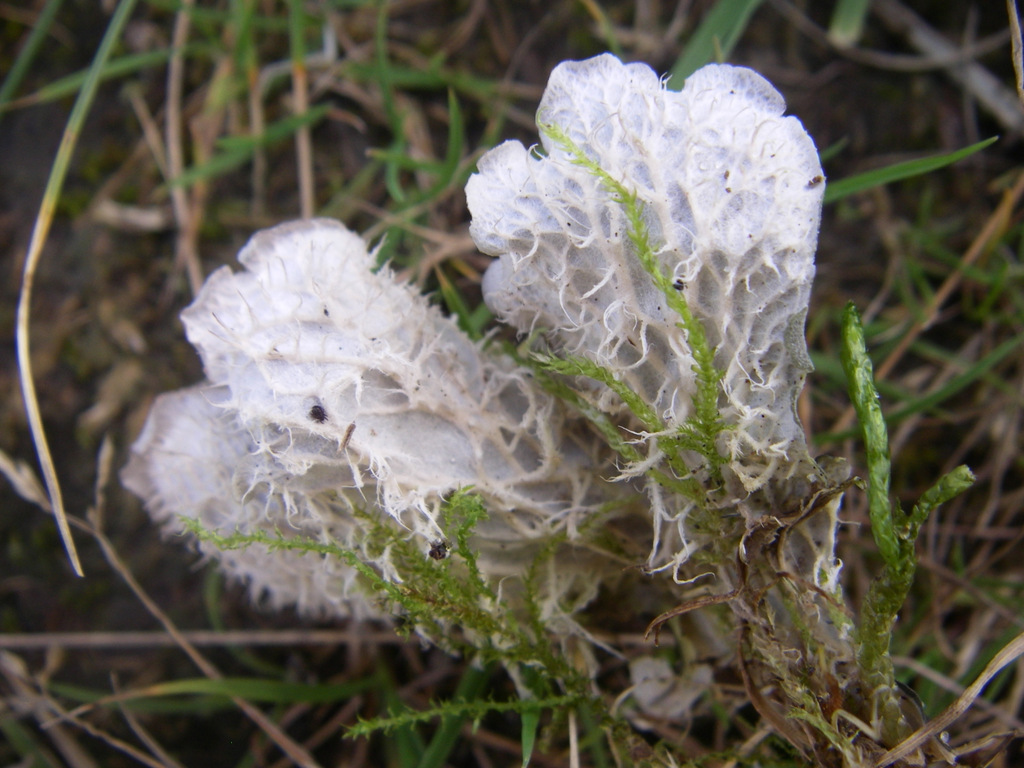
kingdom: Fungi
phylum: Ascomycota
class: Lecanoromycetes
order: Peltigerales
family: Peltigeraceae
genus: Peltigera
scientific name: Peltigera canina
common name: hunde-skjoldlav
